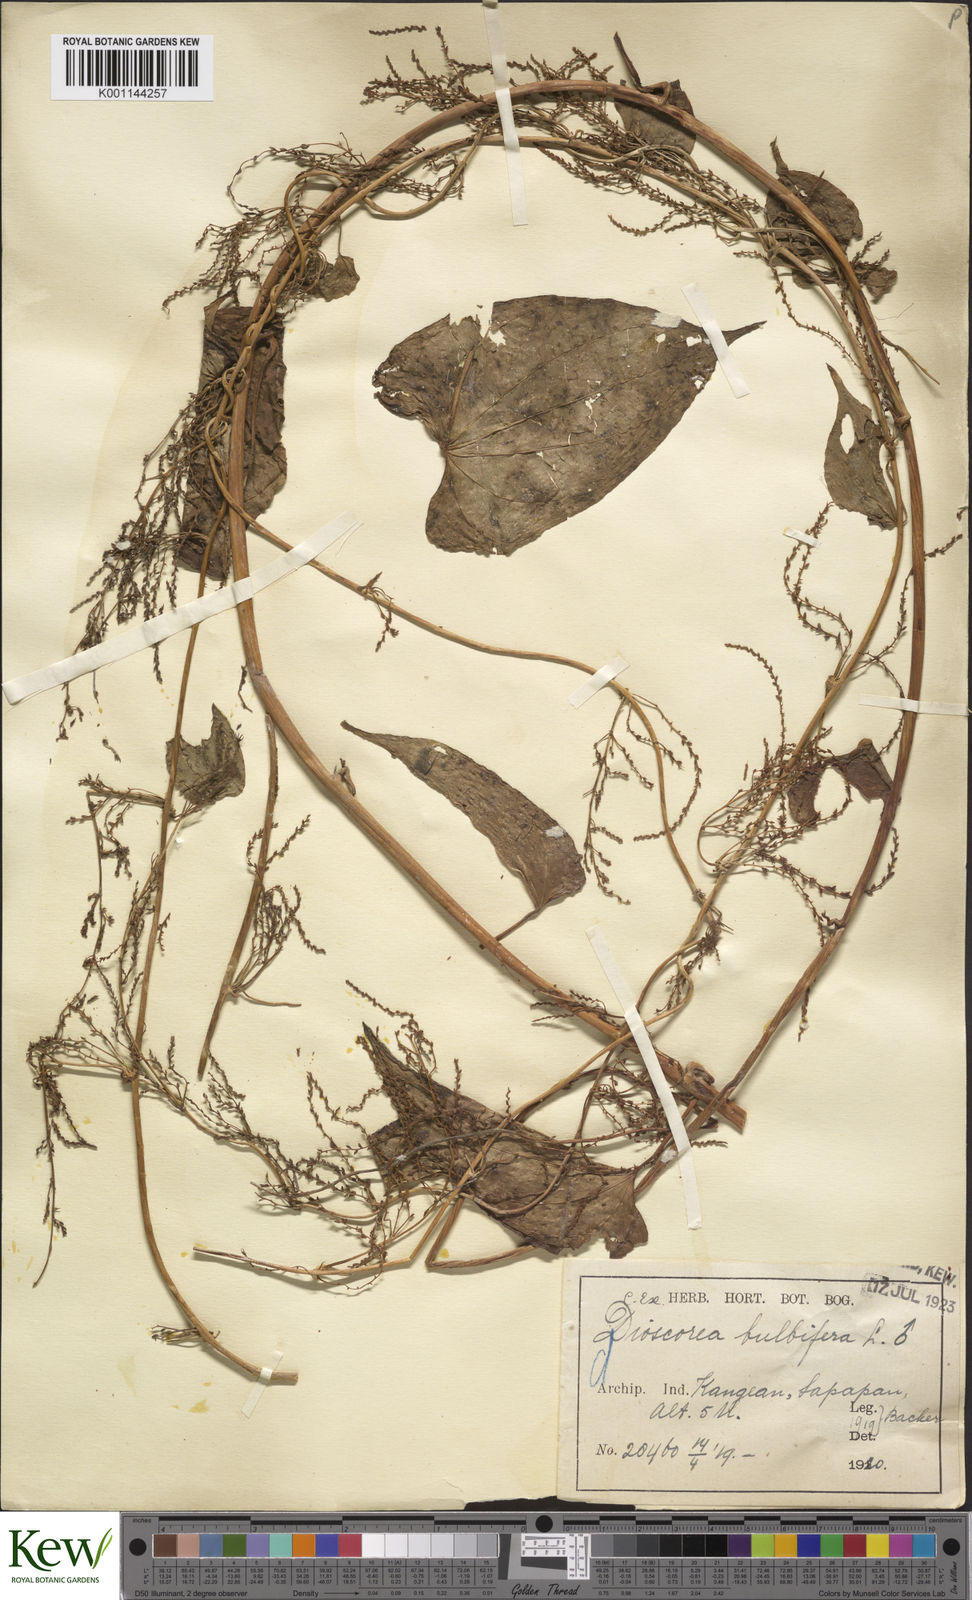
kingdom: Plantae
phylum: Tracheophyta
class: Liliopsida
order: Dioscoreales
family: Dioscoreaceae
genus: Dioscorea
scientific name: Dioscorea bulbifera
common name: Air yam
